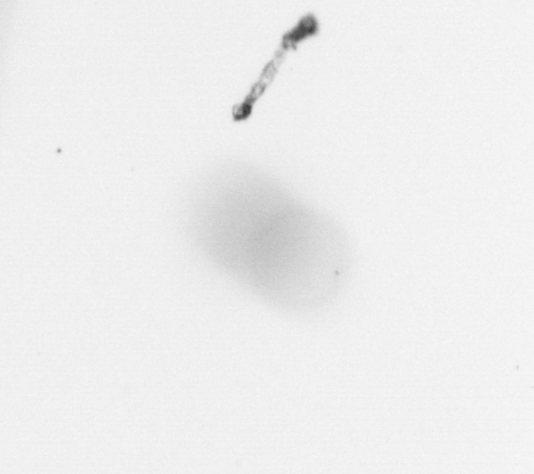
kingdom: Chromista
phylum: Ochrophyta
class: Bacillariophyceae
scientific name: Bacillariophyceae
